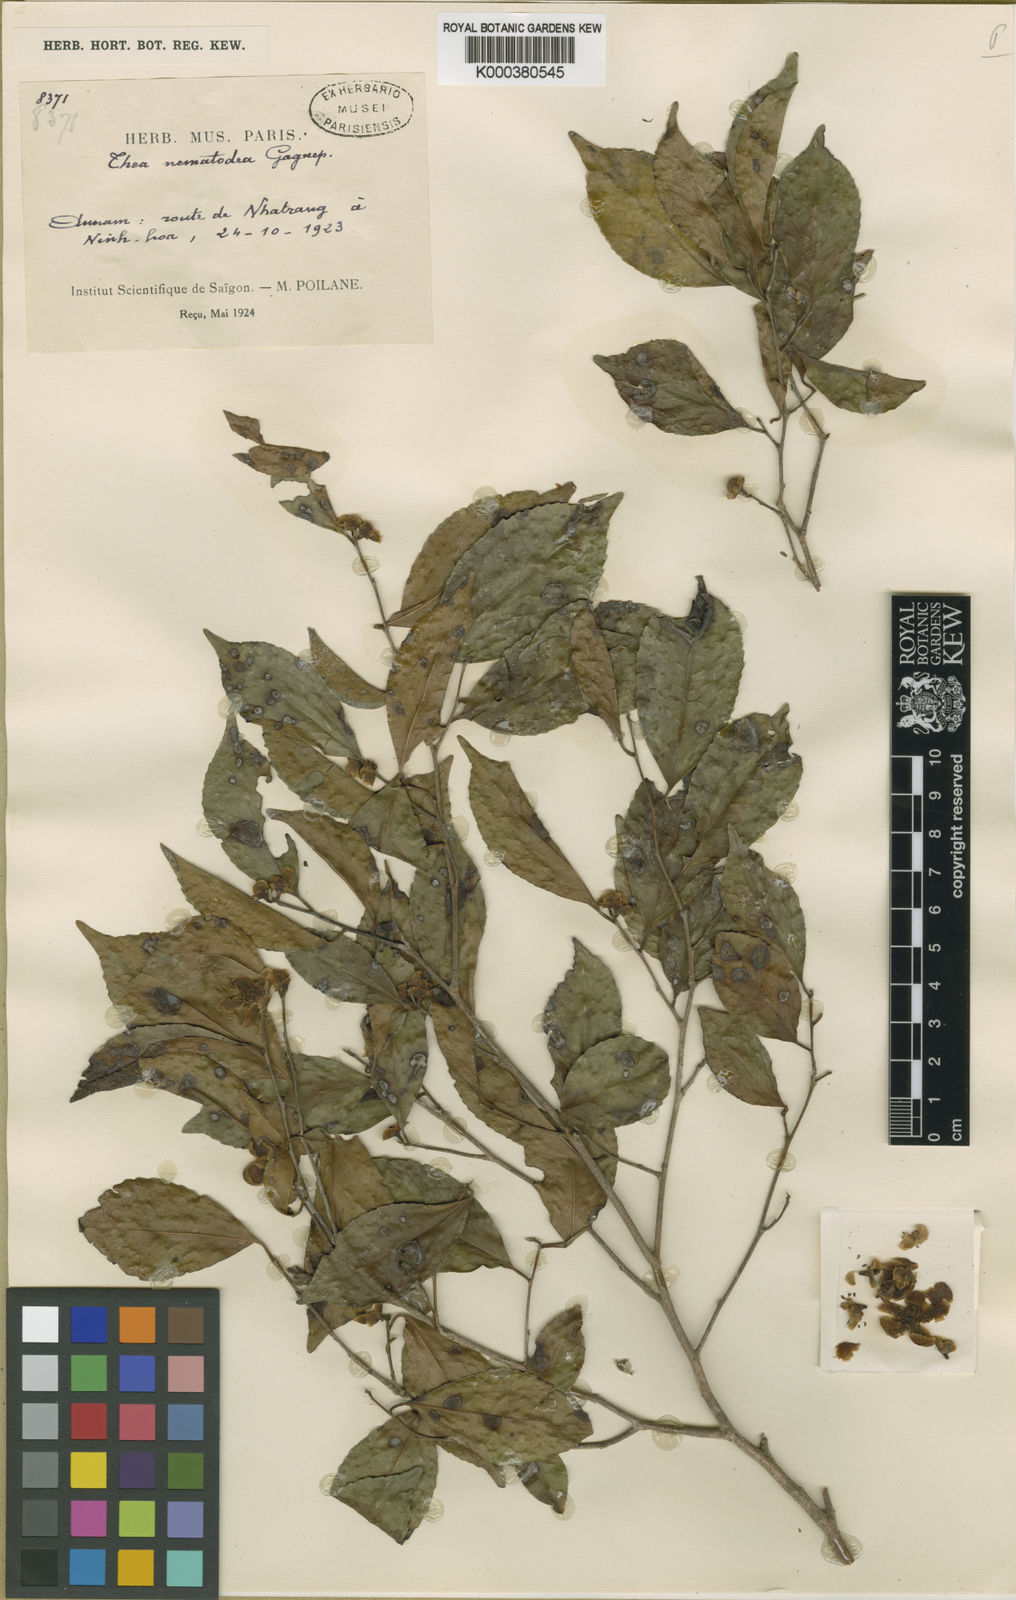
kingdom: Plantae
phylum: Tracheophyta
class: Magnoliopsida
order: Ericales
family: Theaceae
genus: Camellia
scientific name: Camellia nematodea
